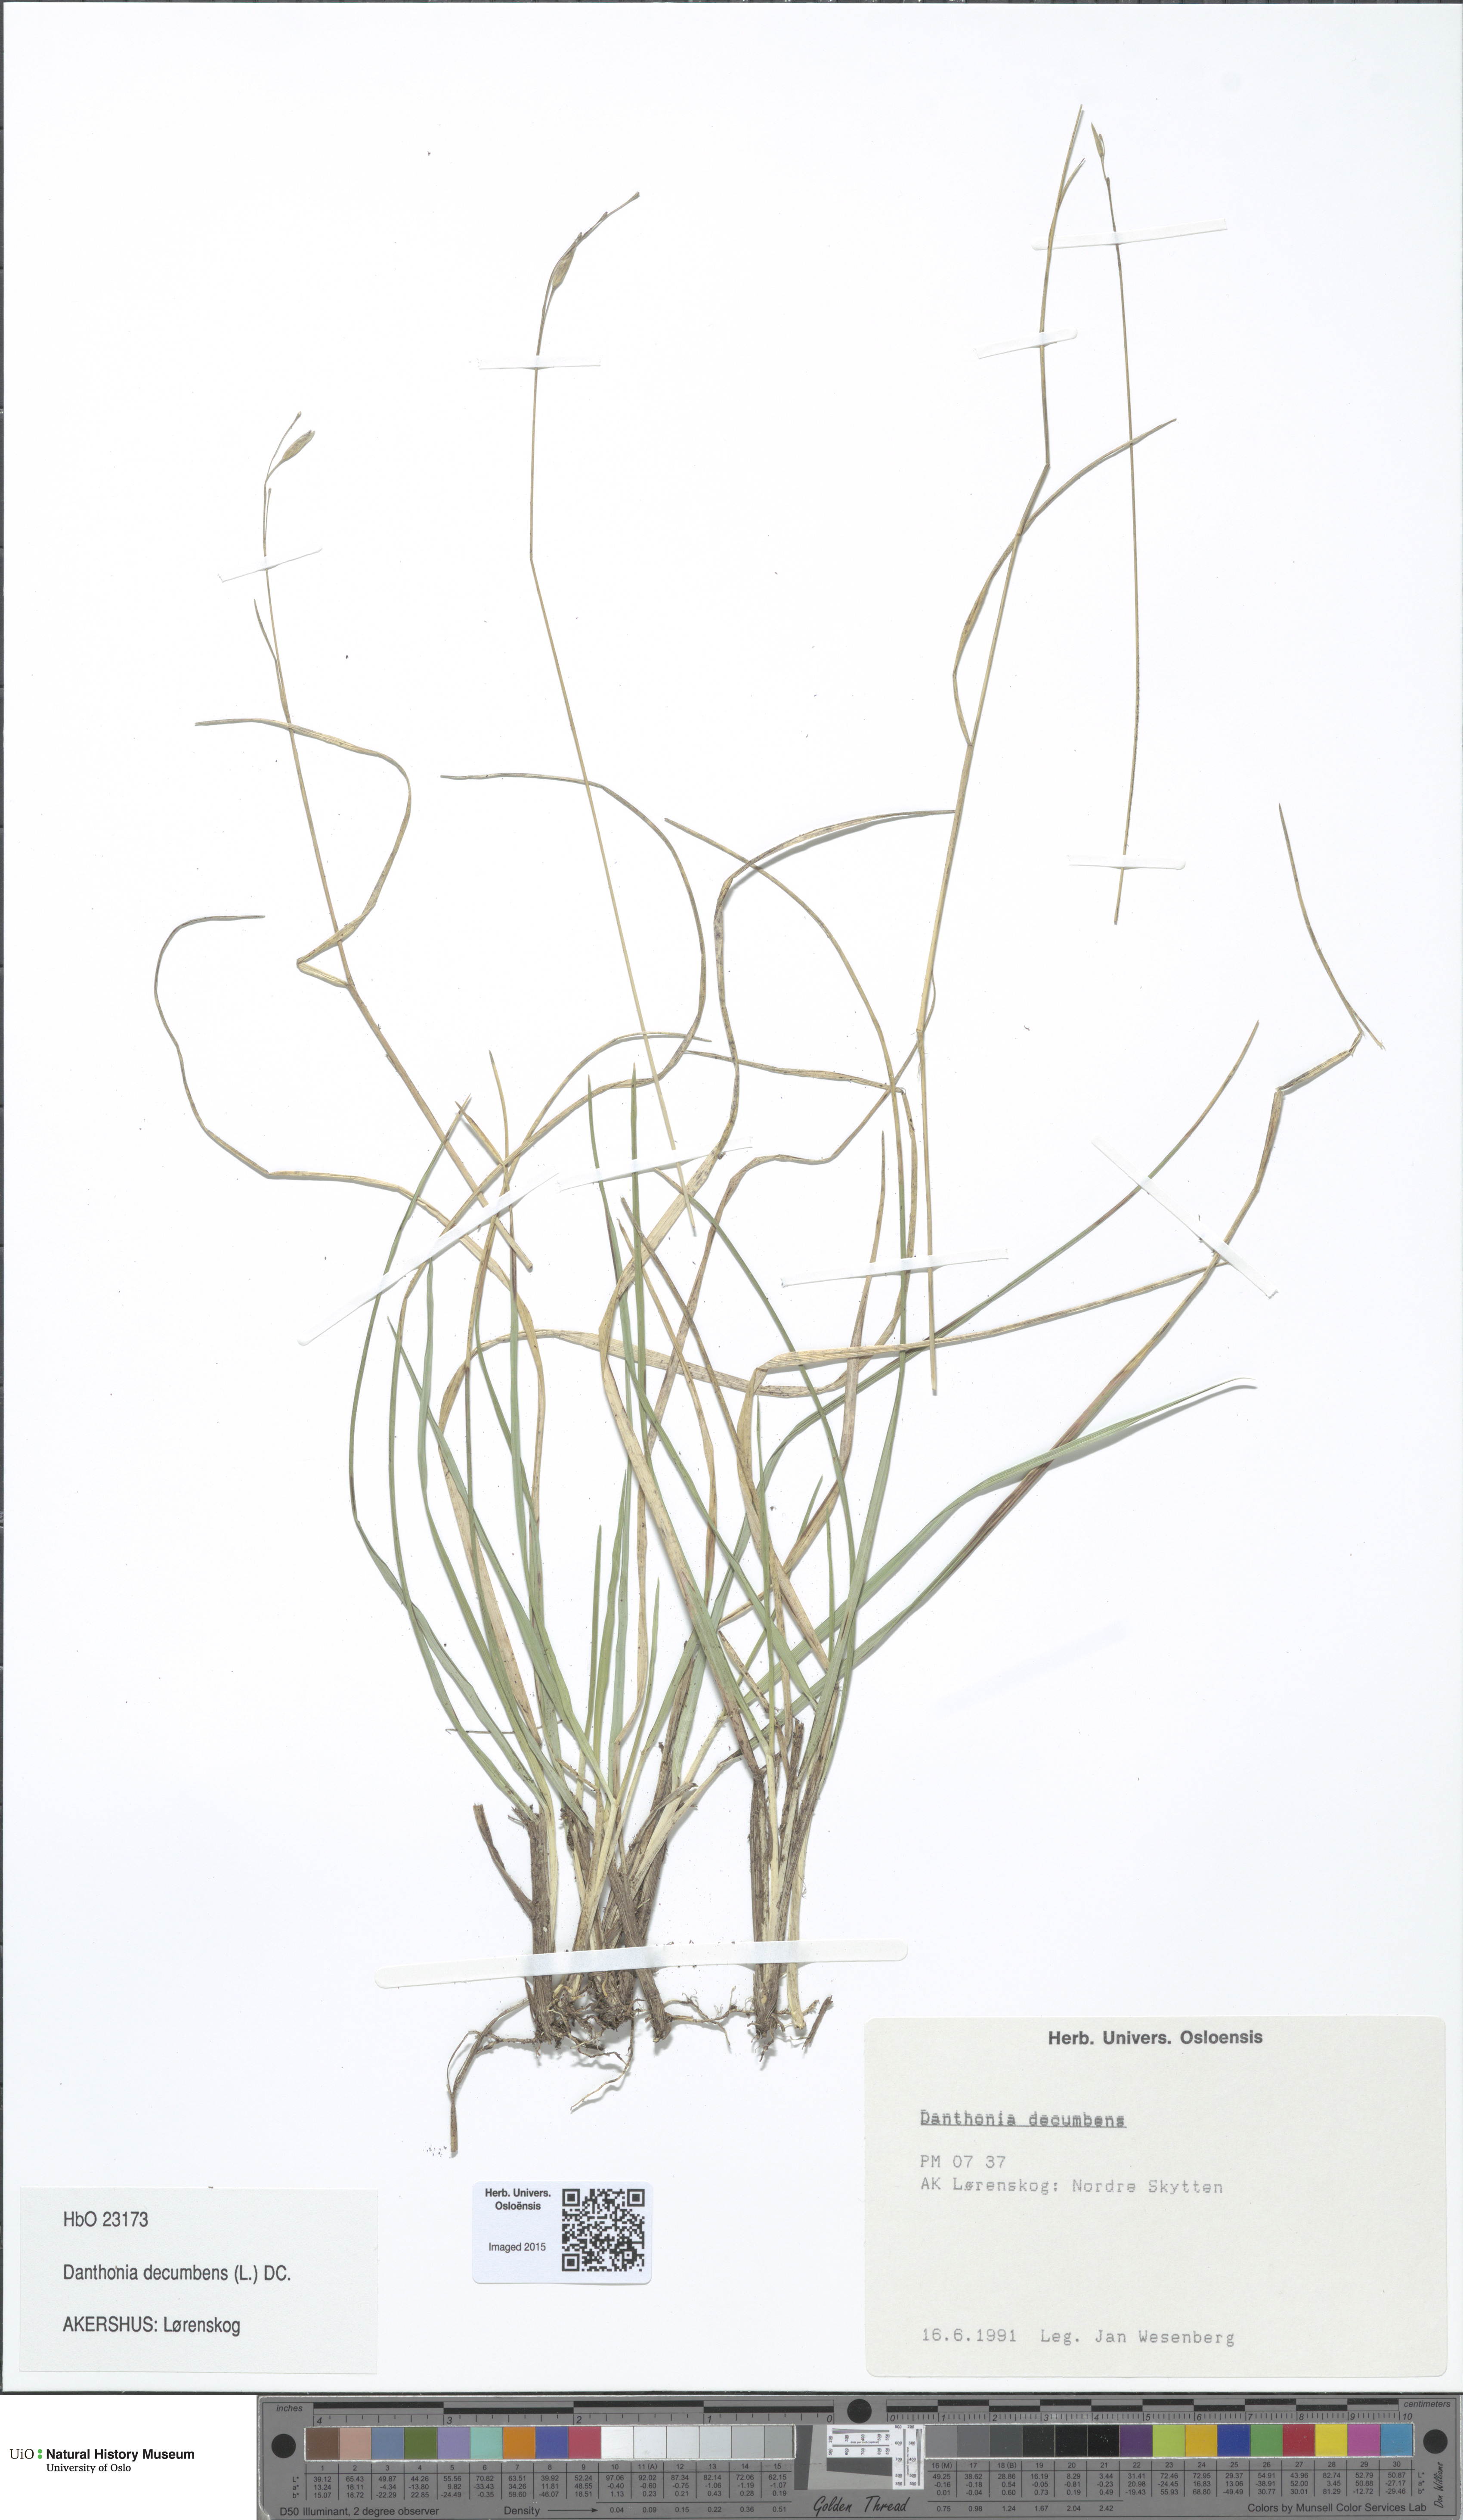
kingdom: Plantae
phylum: Tracheophyta
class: Liliopsida
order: Poales
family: Poaceae
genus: Danthonia
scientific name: Danthonia decumbens
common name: Common heathgrass
